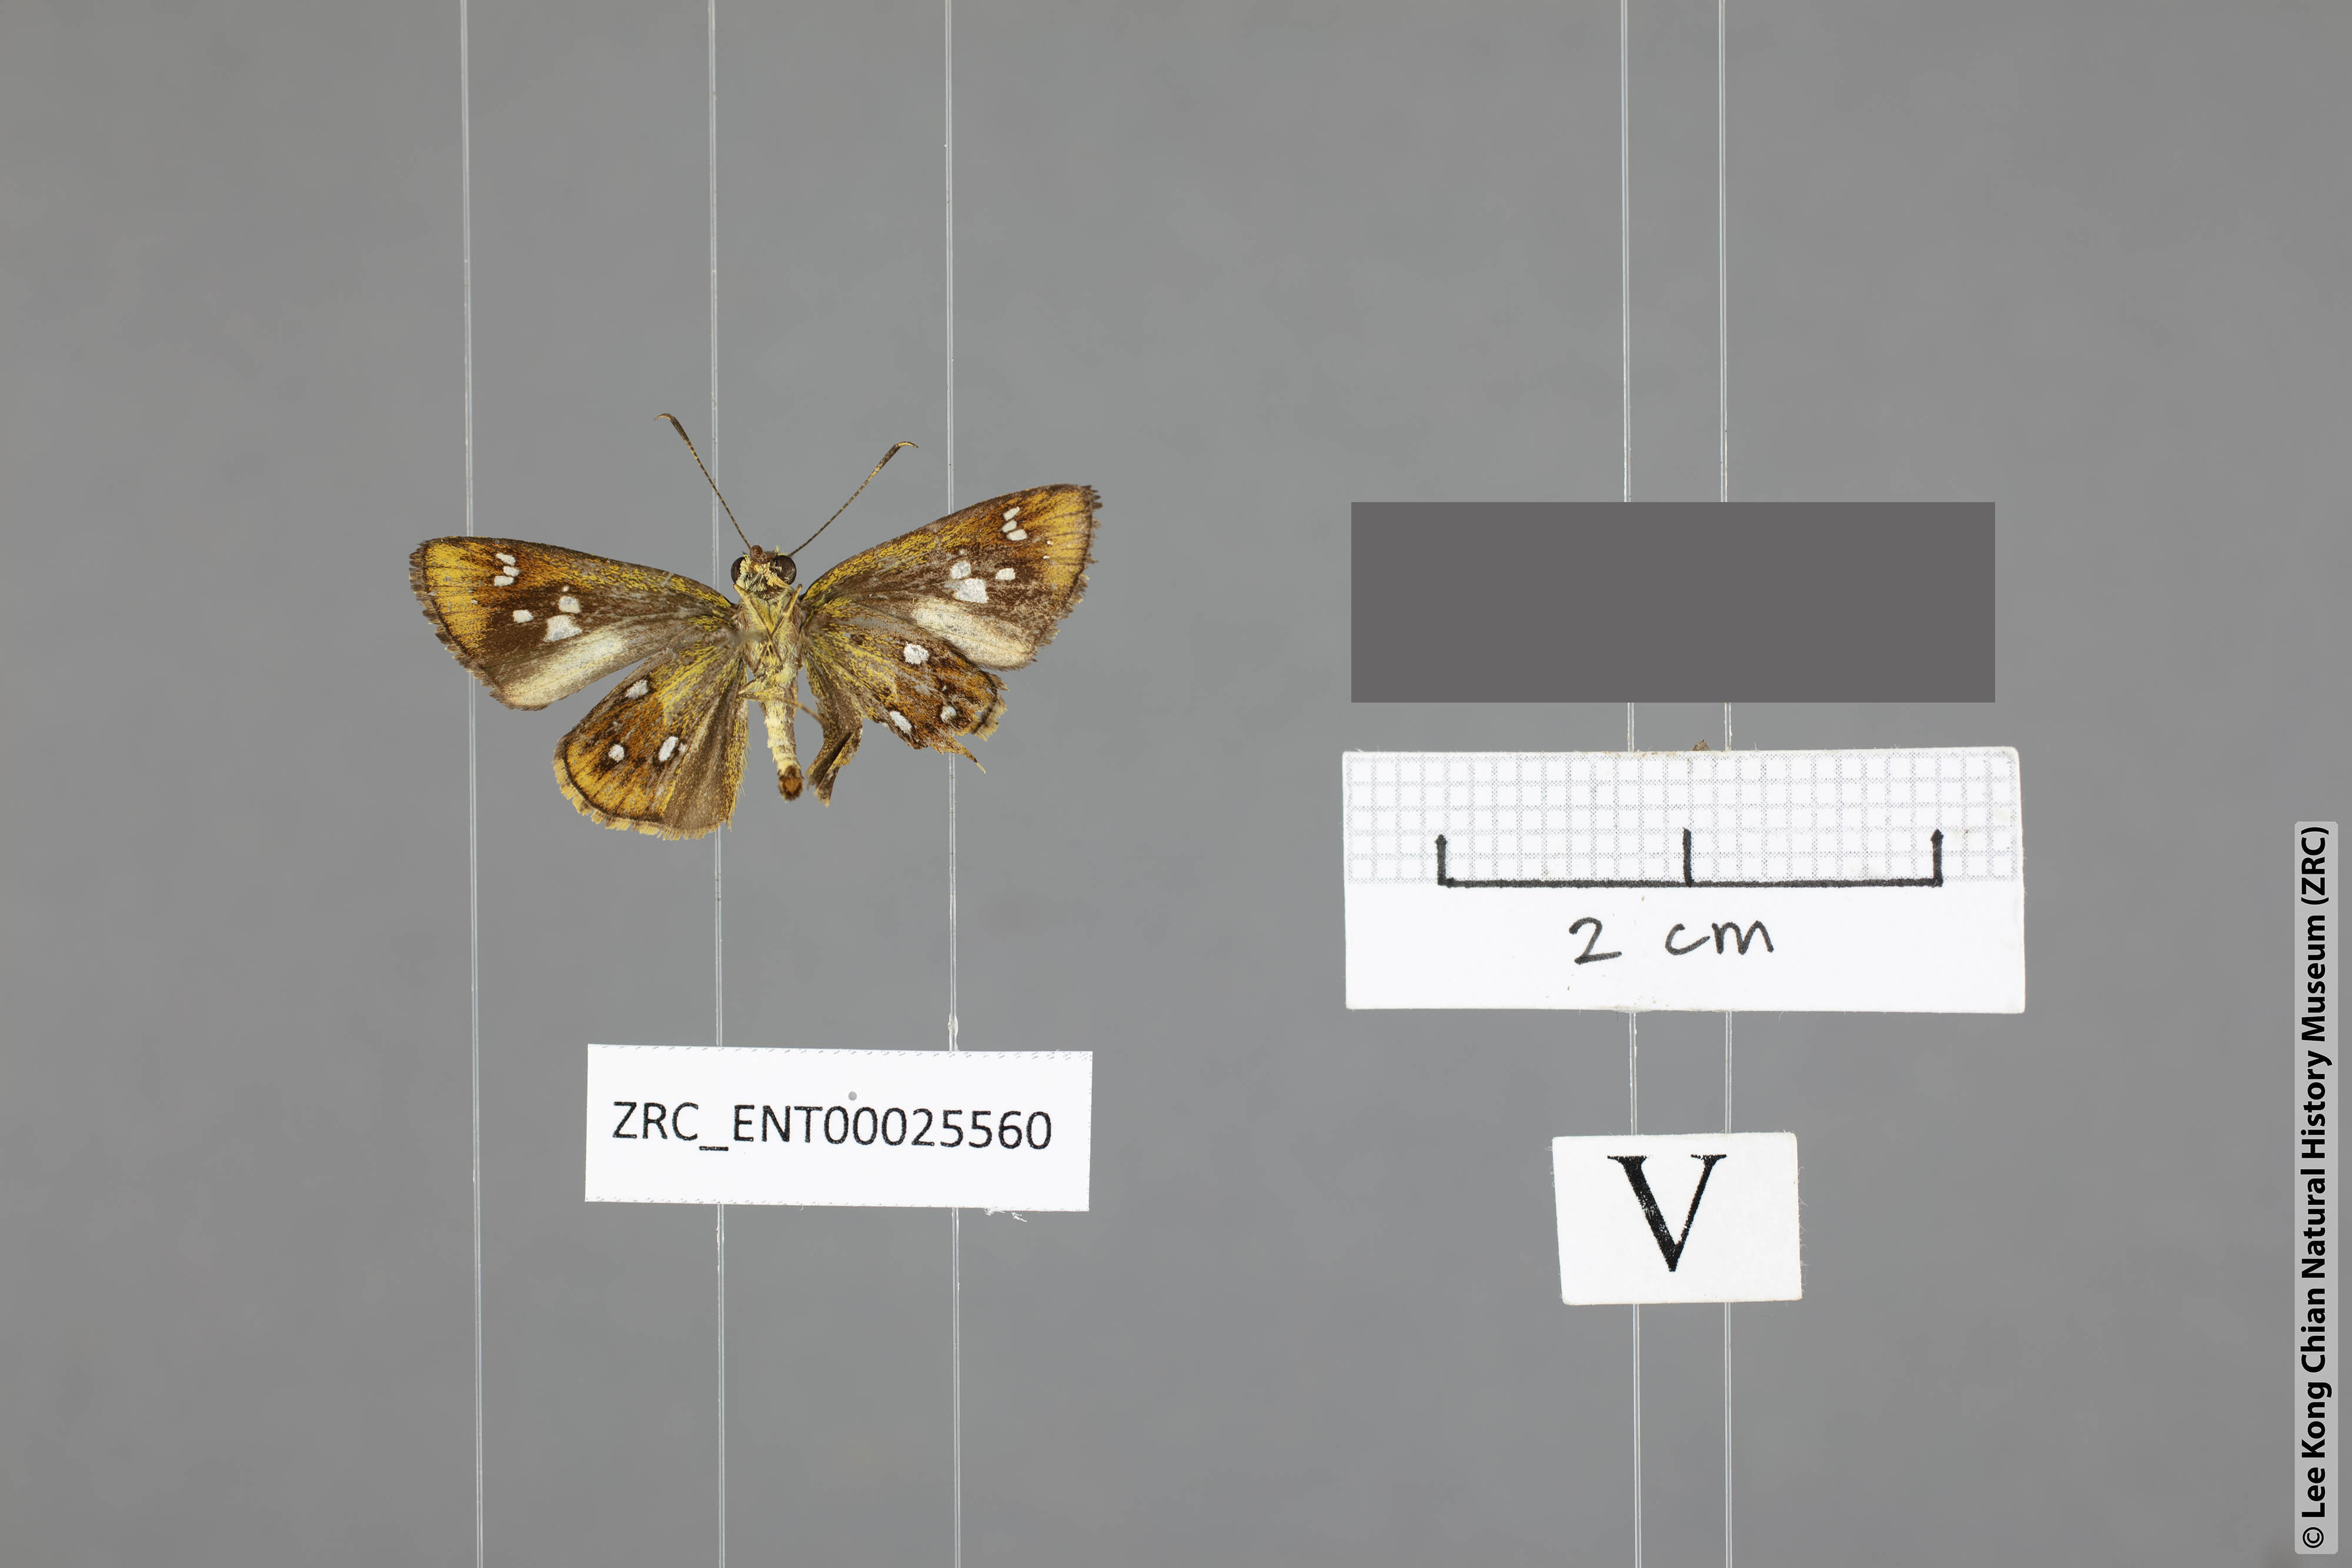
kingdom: Animalia
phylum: Arthropoda
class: Insecta
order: Lepidoptera
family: Hesperiidae
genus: Scobura
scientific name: Scobura woolletti
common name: Brown forest bob
